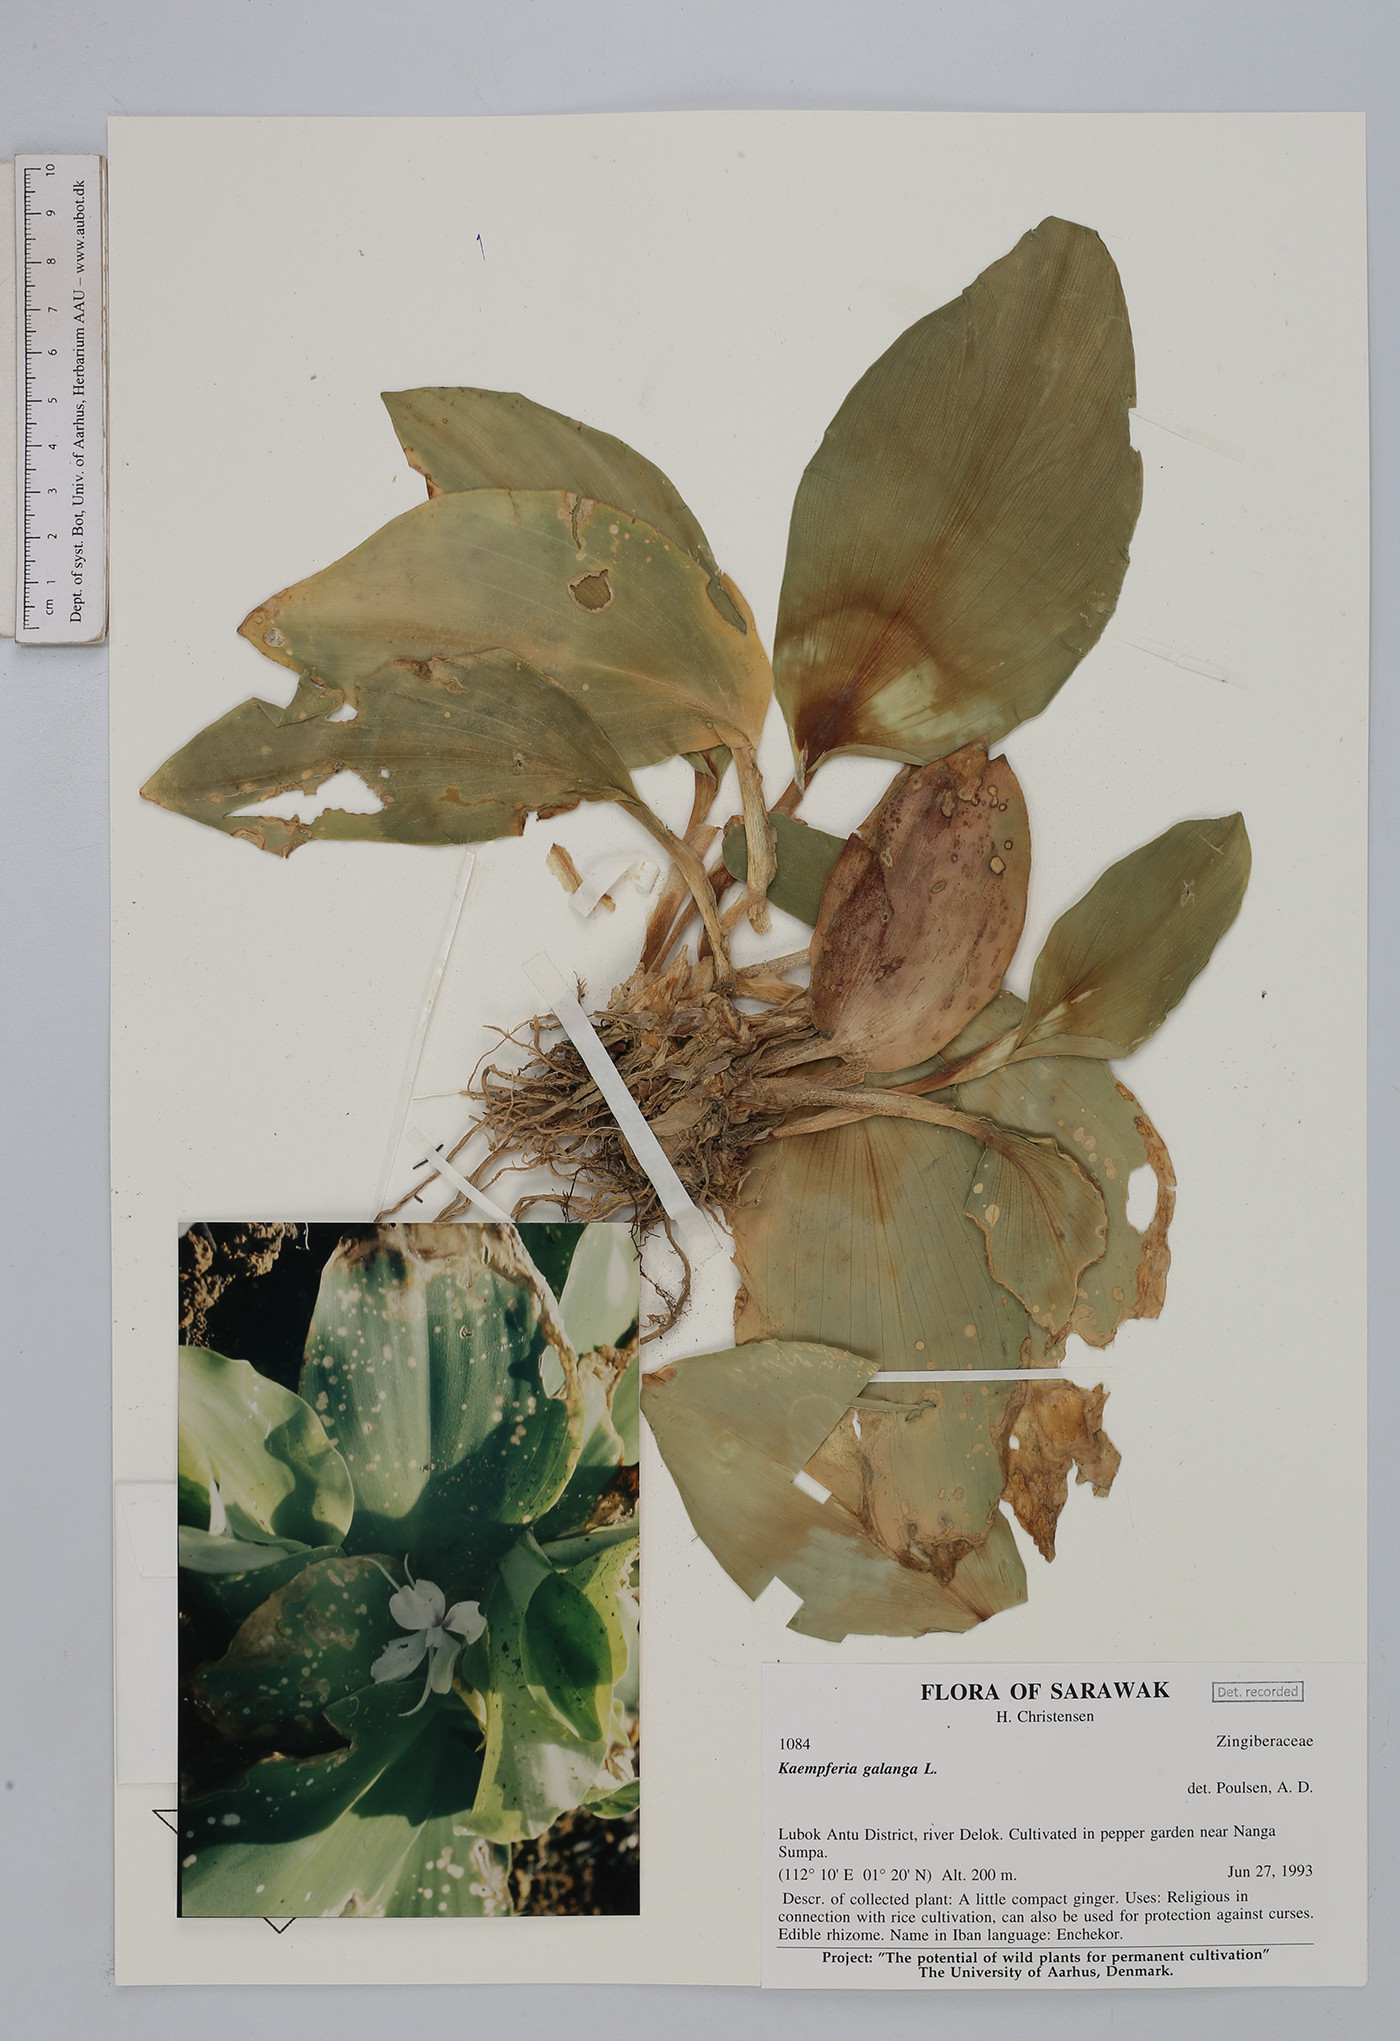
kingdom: Plantae
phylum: Tracheophyta
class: Liliopsida
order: Zingiberales
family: Zingiberaceae
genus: Kaempferia
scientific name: Kaempferia galanga
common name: Aromatic ginger
